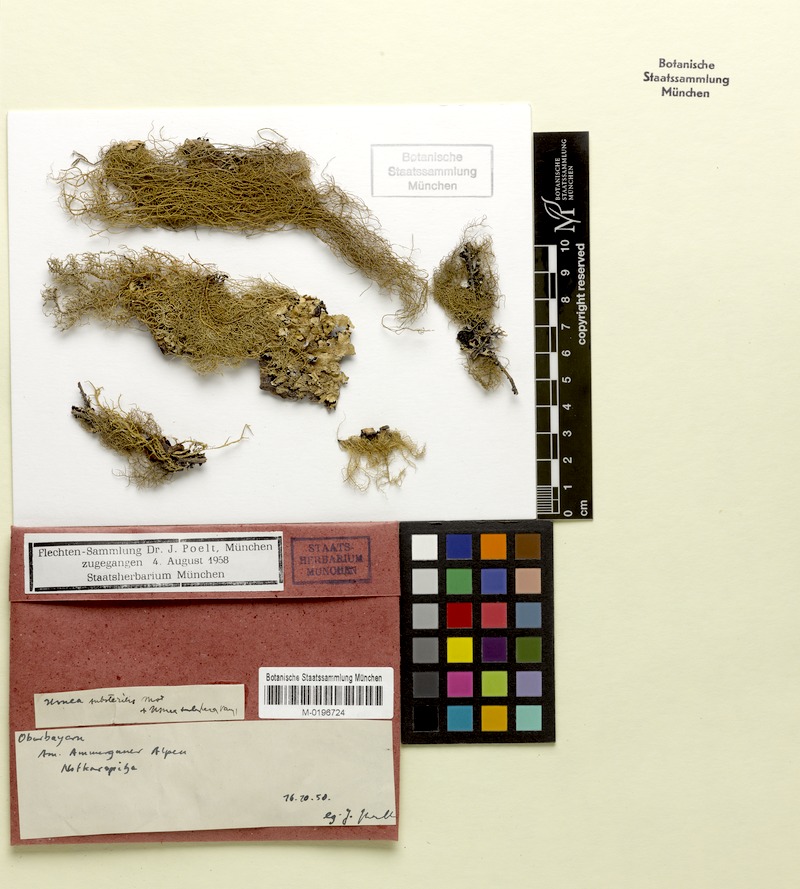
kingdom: Fungi
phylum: Ascomycota
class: Lecanoromycetes
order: Lecanorales
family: Parmeliaceae
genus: Usnea
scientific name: Usnea substerilis
